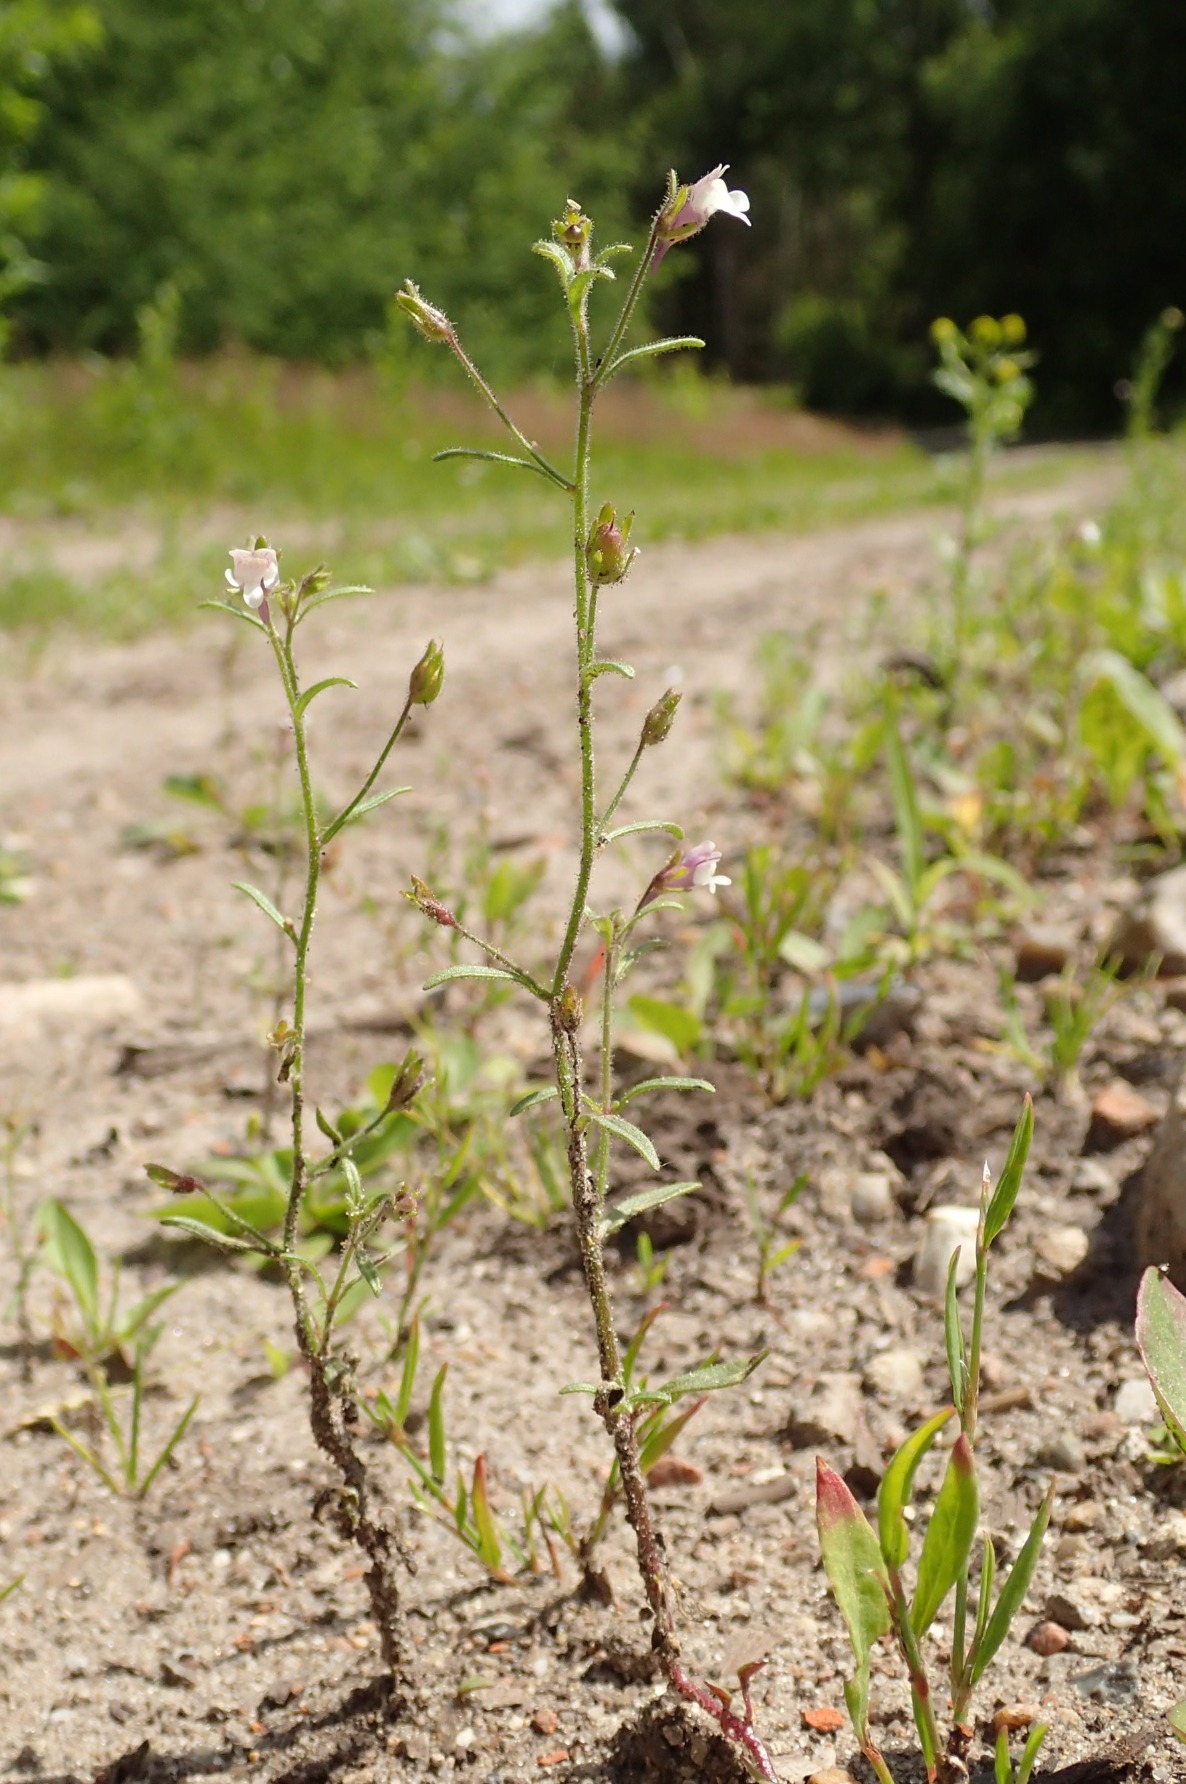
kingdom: Plantae
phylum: Tracheophyta
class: Magnoliopsida
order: Lamiales
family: Plantaginaceae
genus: Chaenorhinum
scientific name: Chaenorhinum minus
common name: Liden torskemund
